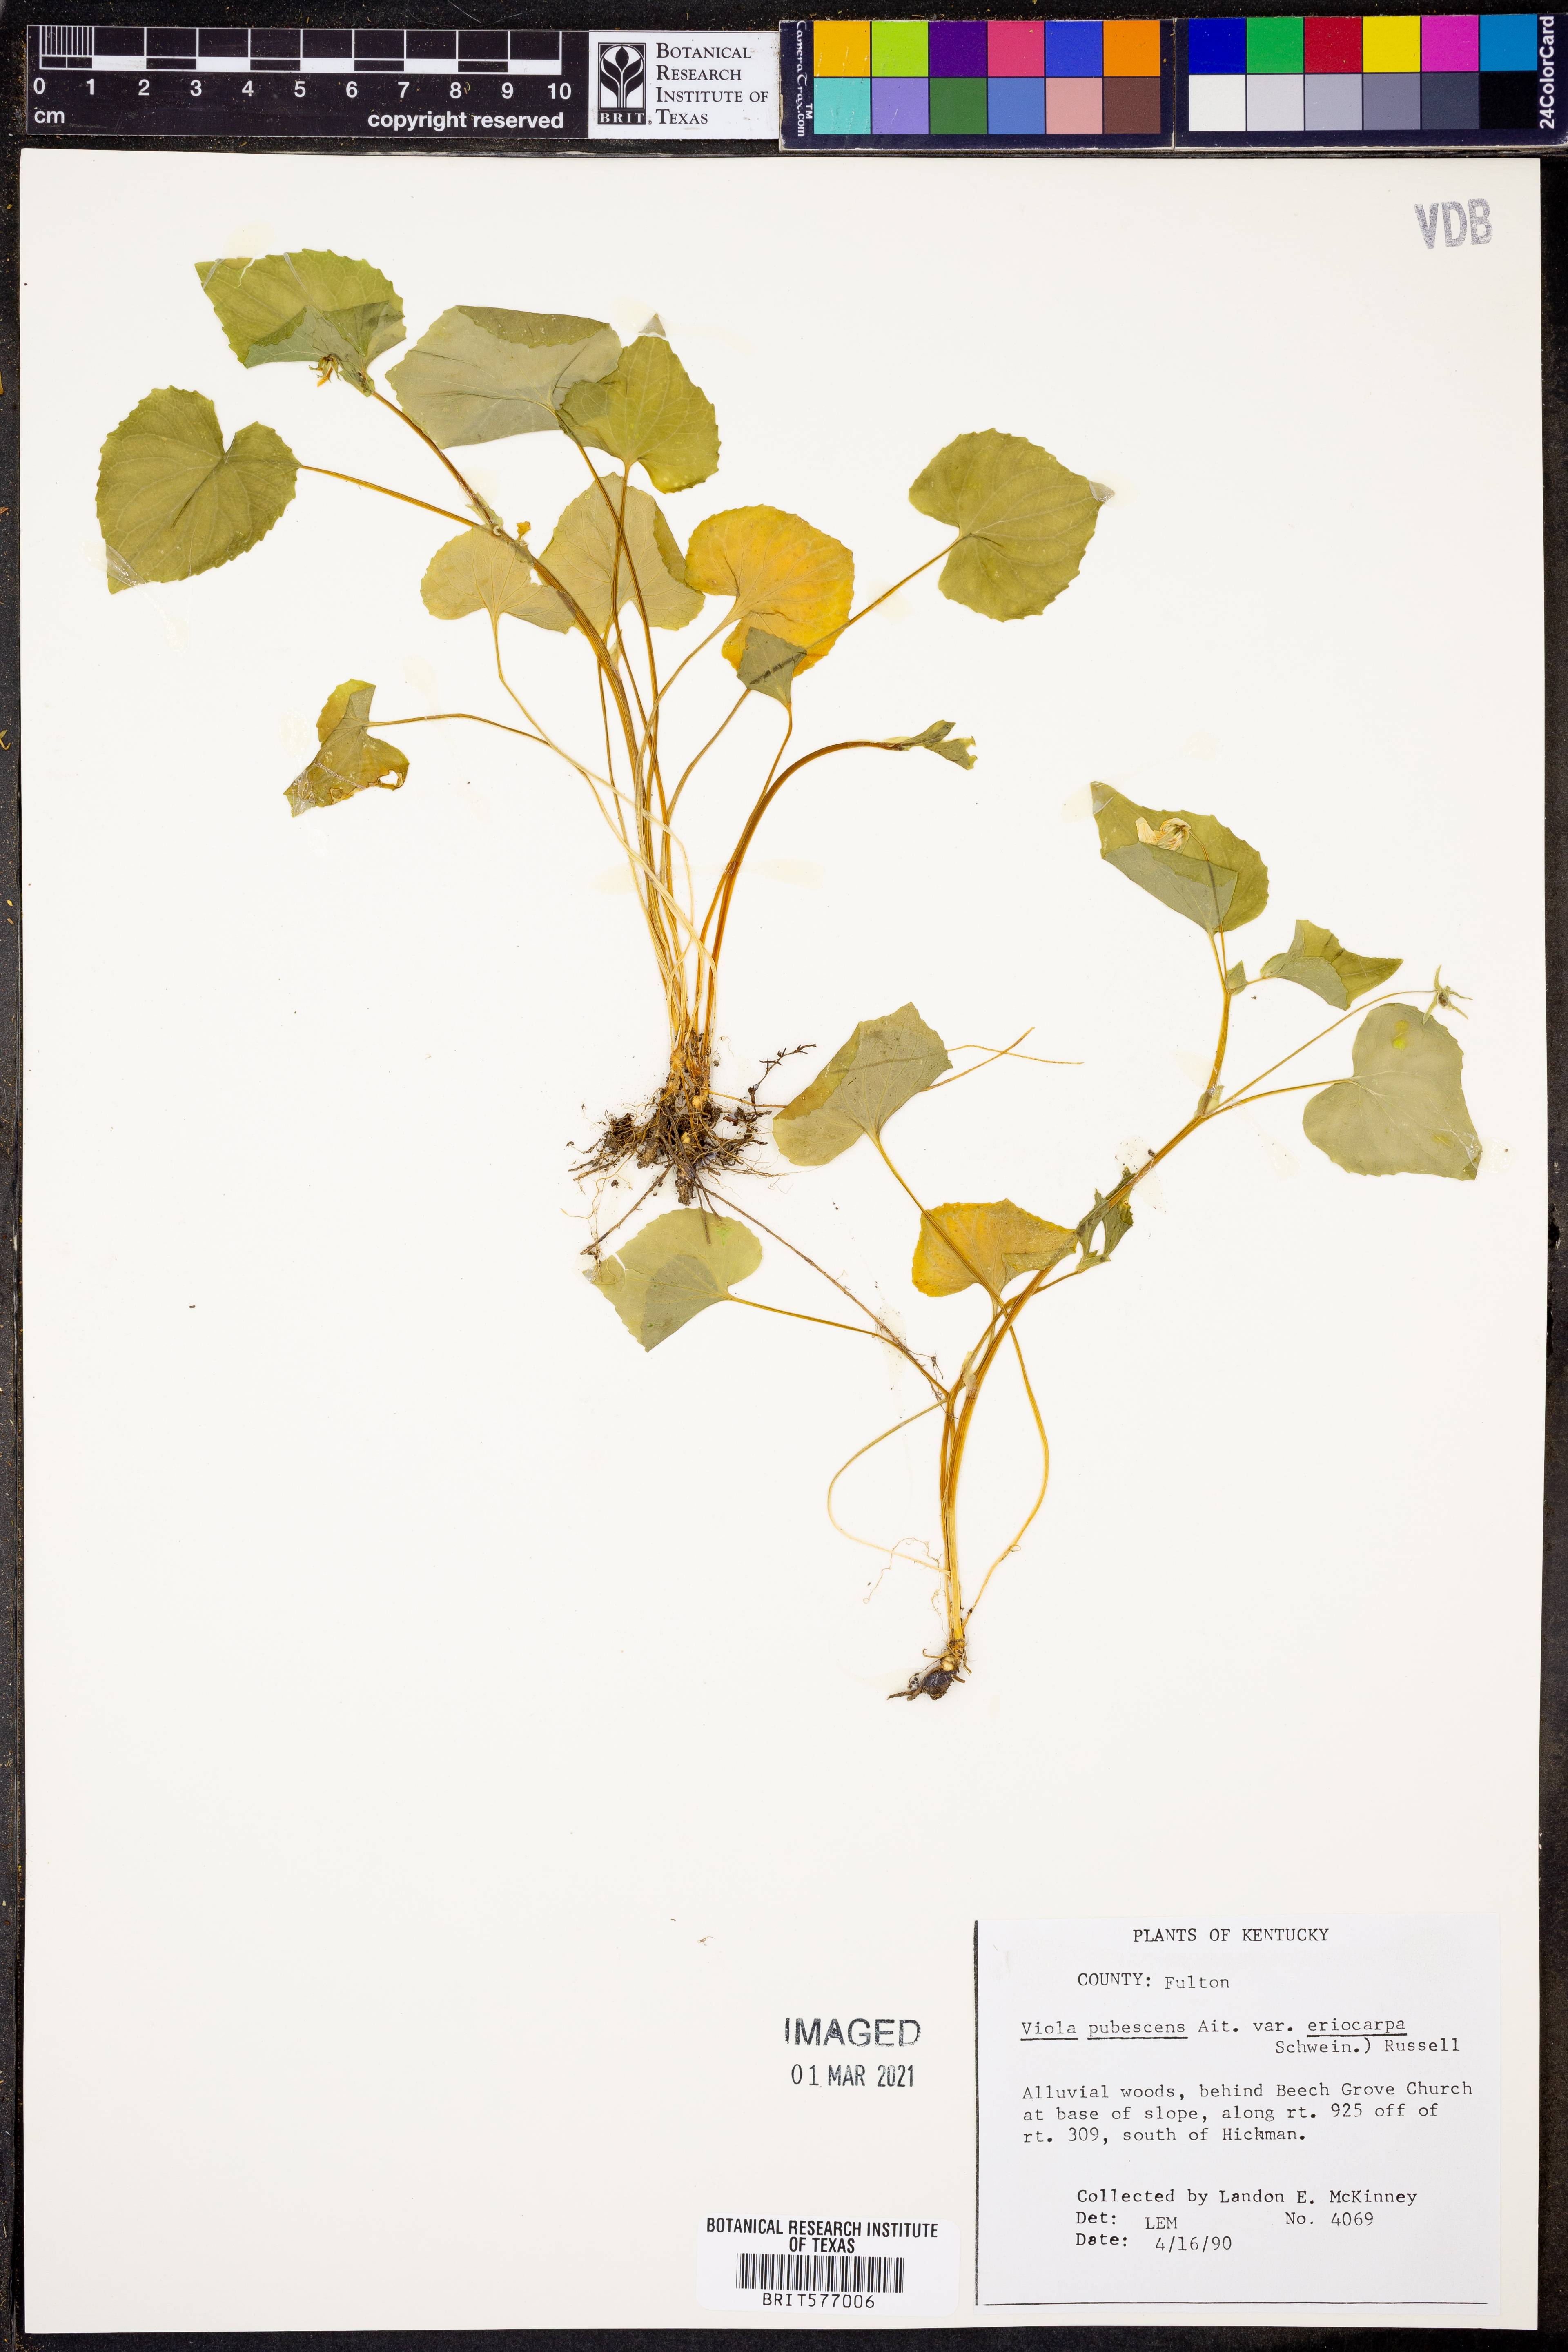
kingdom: Plantae
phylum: Tracheophyta
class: Magnoliopsida
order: Malpighiales
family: Violaceae
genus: Viola
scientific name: Viola eriocarpa
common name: Smooth yellow violet
